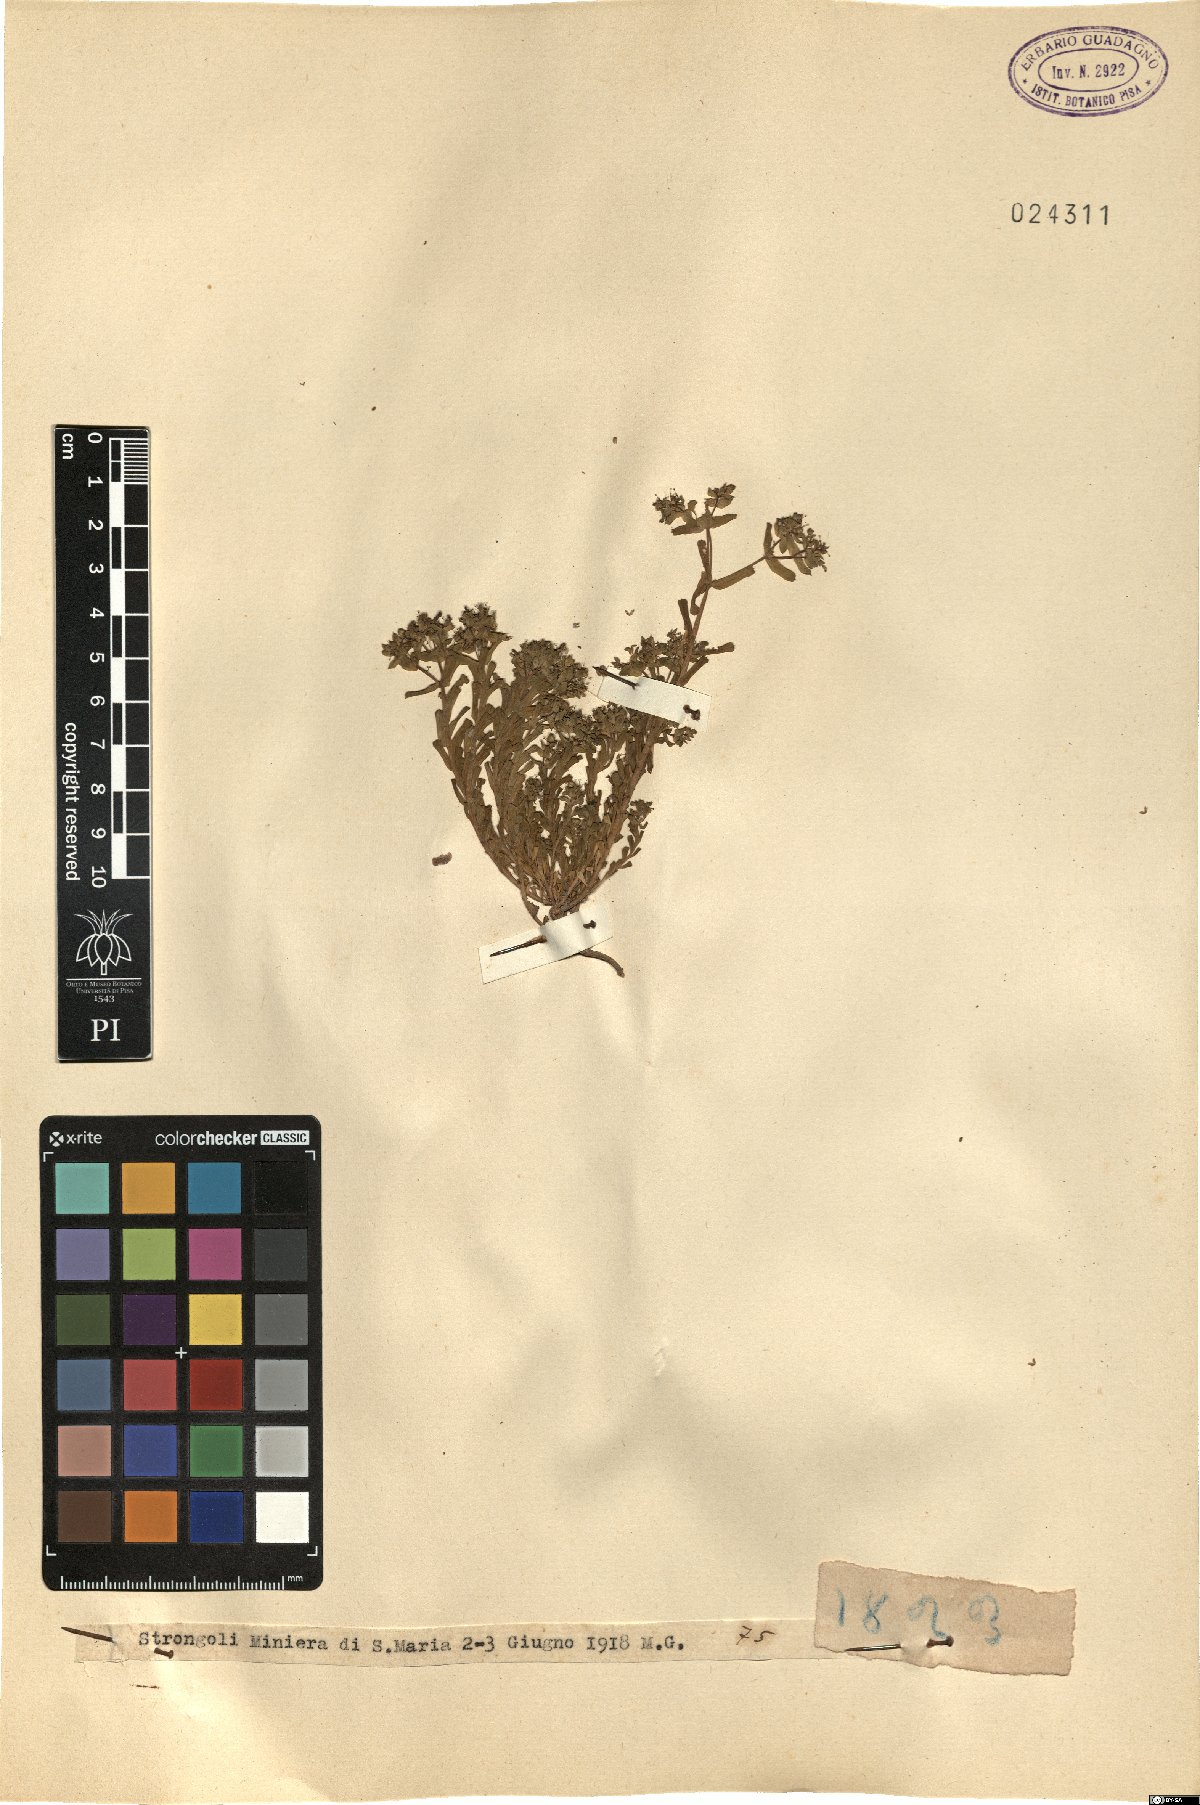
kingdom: Plantae
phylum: Tracheophyta
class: Magnoliopsida
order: Malpighiales
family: Euphorbiaceae
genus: Euphorbia
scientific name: Euphorbia
